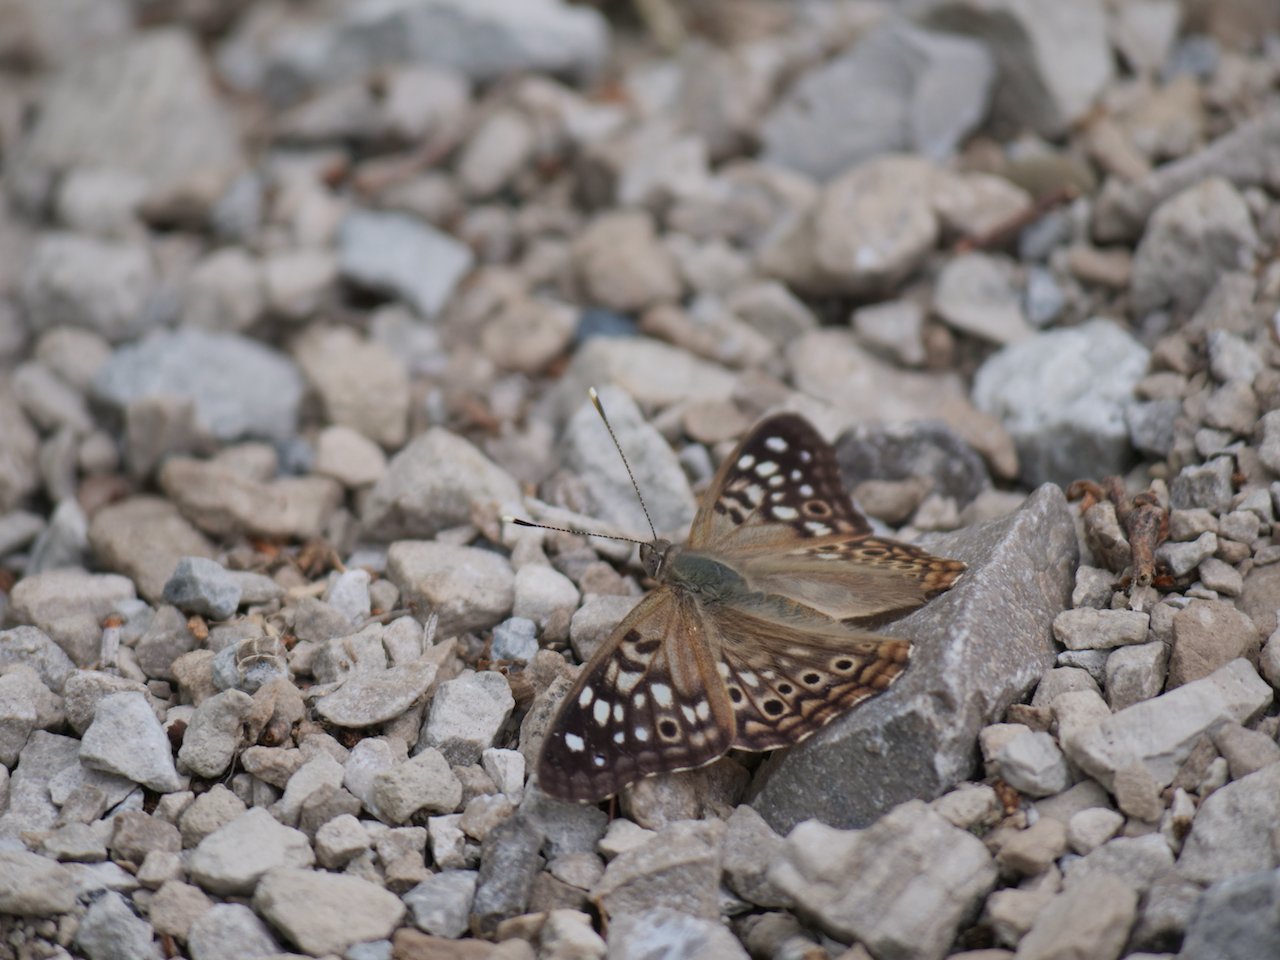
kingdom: Animalia
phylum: Arthropoda
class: Insecta
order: Lepidoptera
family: Nymphalidae
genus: Asterocampa
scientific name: Asterocampa celtis
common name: Hackberry Emperor
